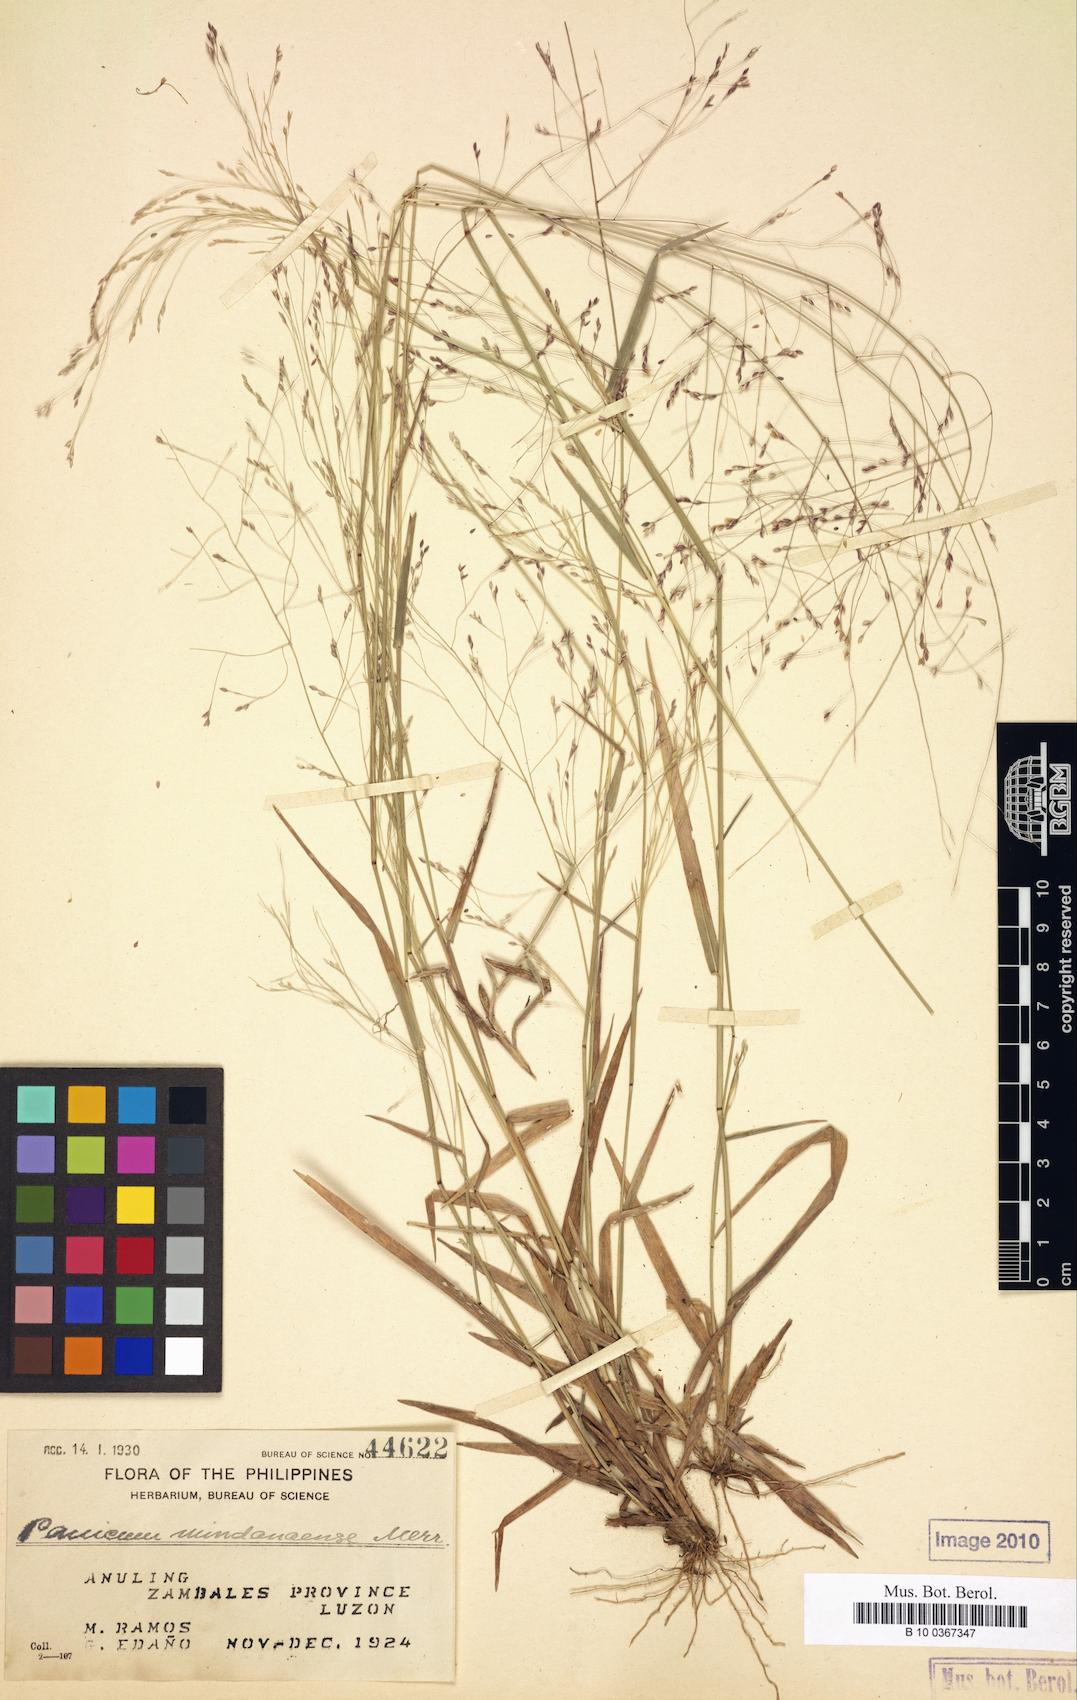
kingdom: Plantae
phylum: Tracheophyta
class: Liliopsida
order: Poales
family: Poaceae
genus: Panicum
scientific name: Panicum mindanaense
